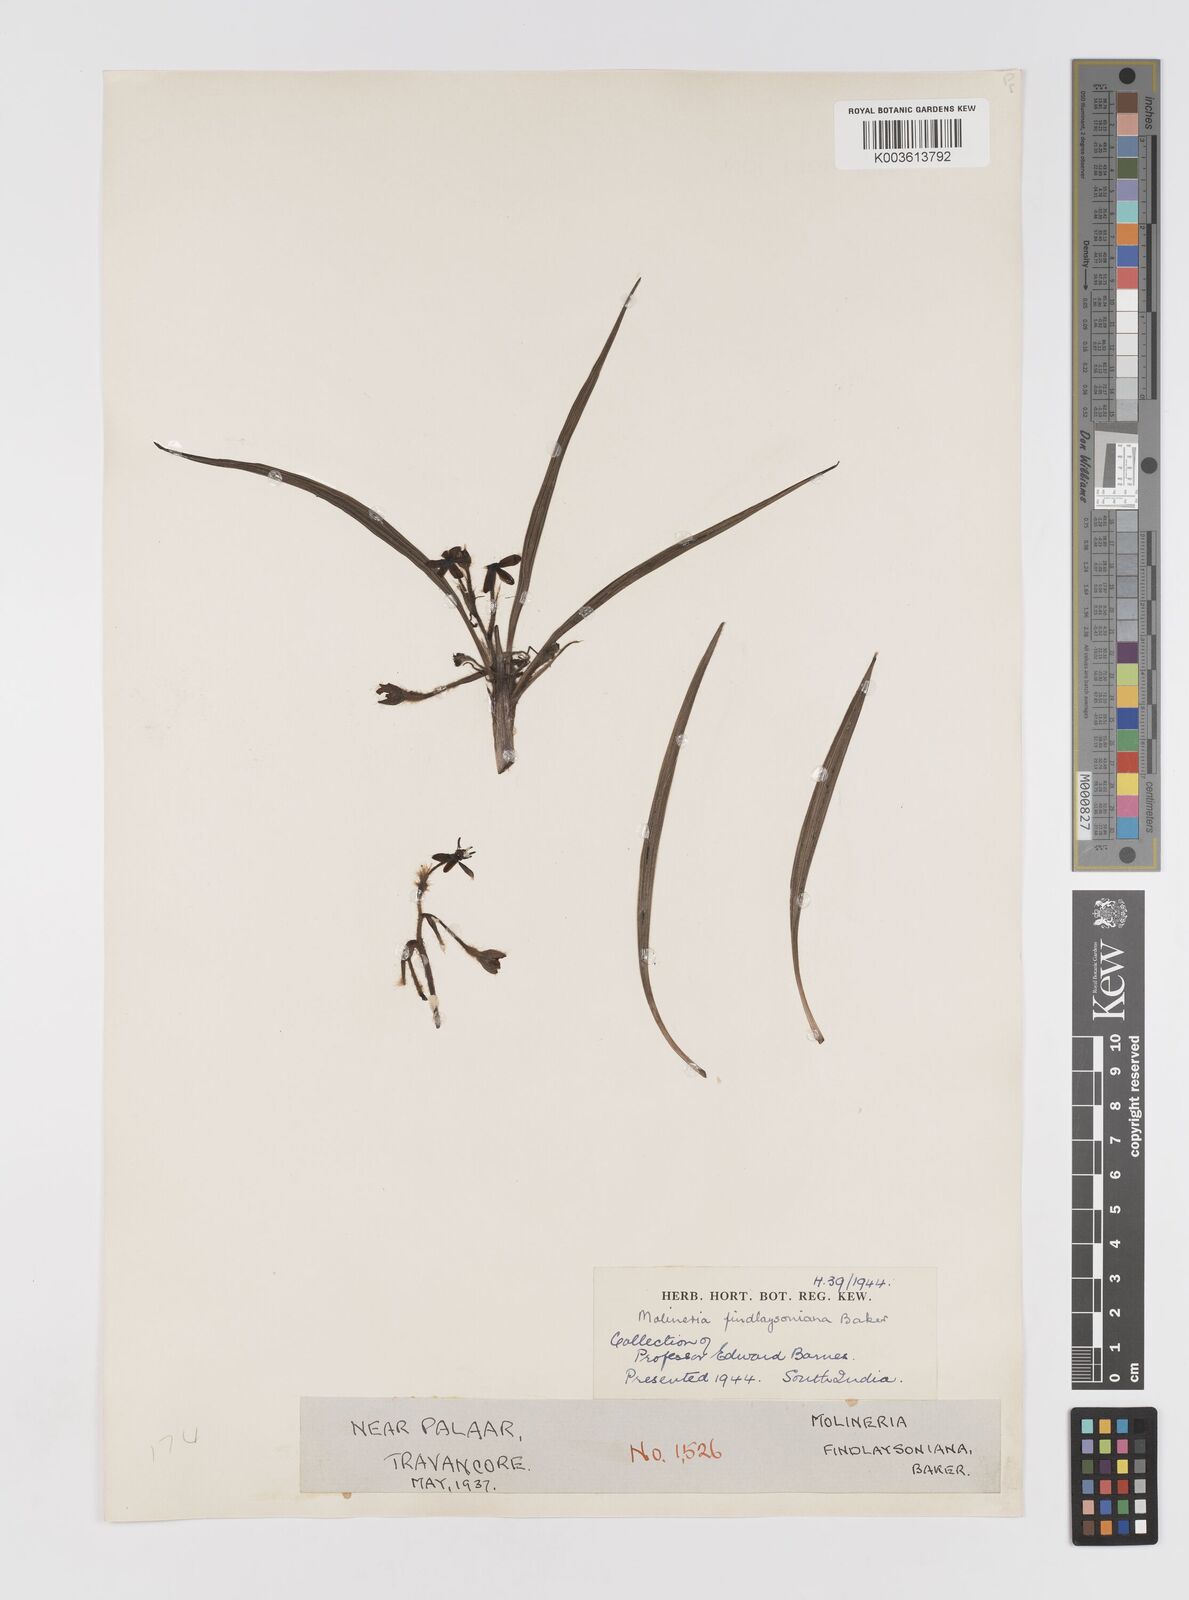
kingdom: Plantae
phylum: Tracheophyta
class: Liliopsida
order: Asparagales
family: Hypoxidaceae
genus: Curculigo
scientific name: Curculigo trichocarpa
